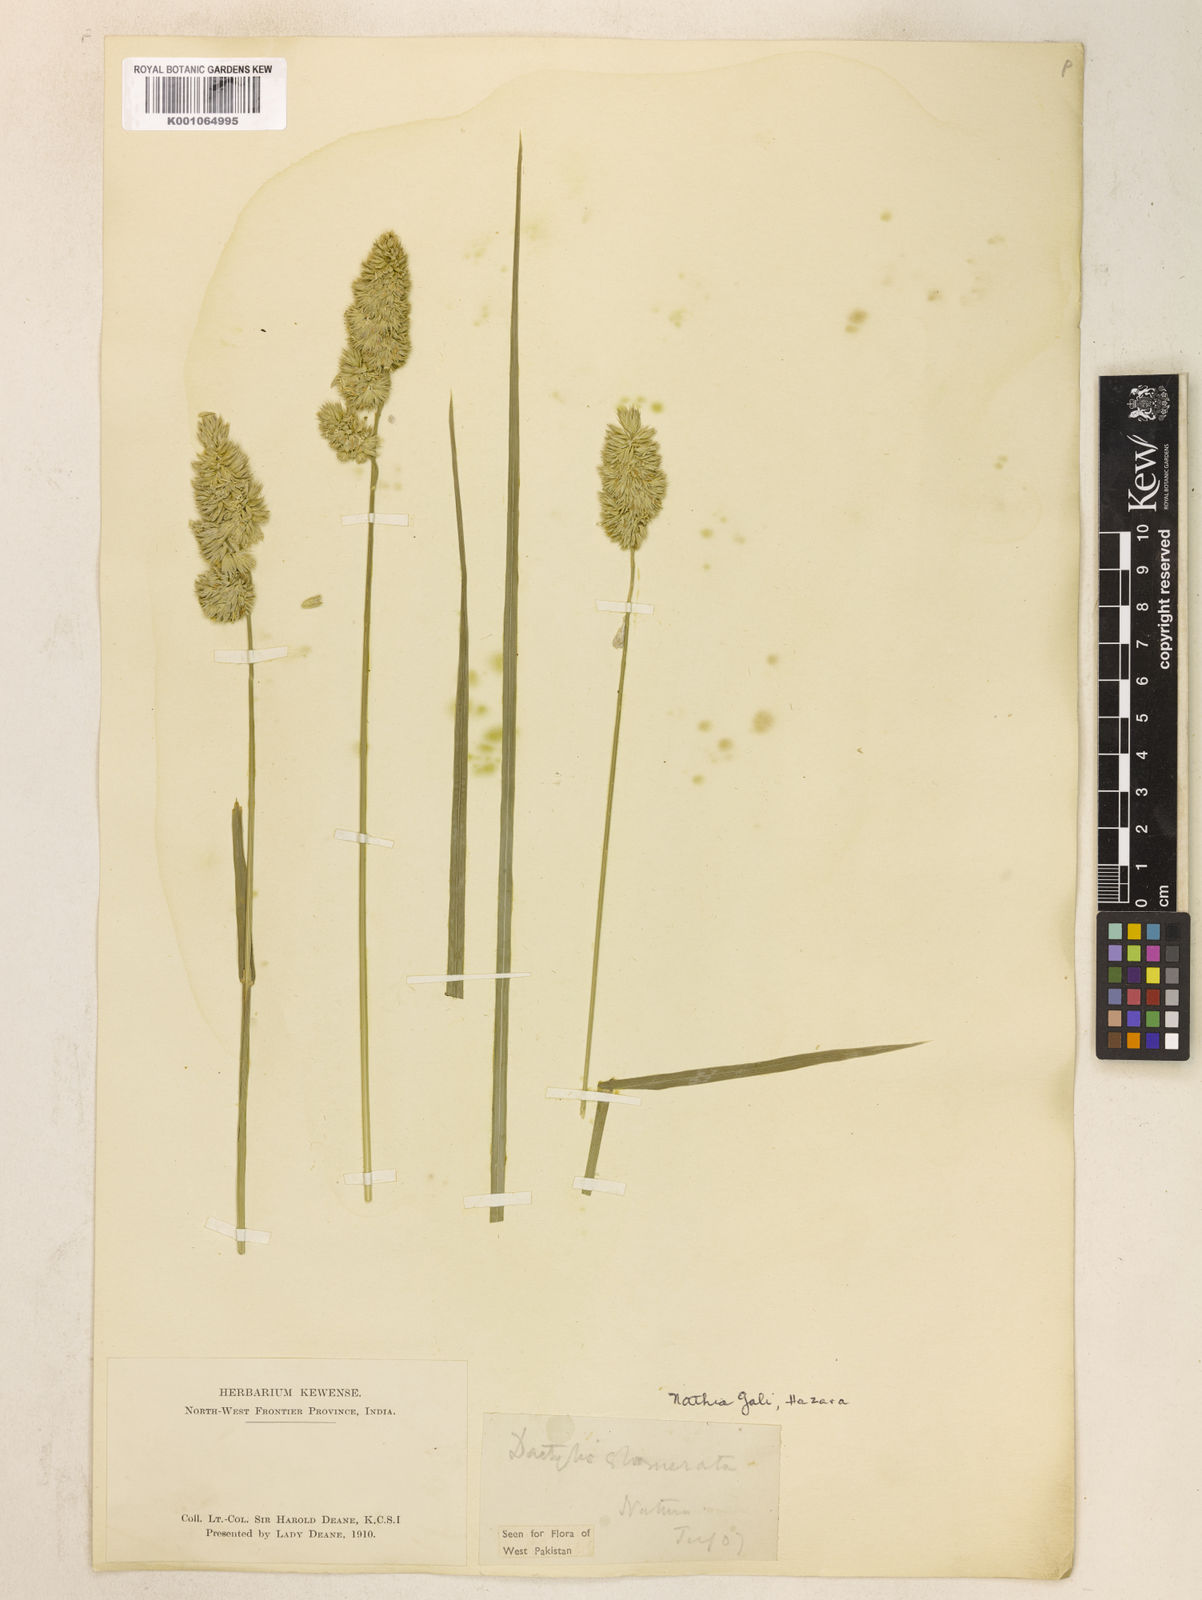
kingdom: Plantae
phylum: Tracheophyta
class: Liliopsida
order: Poales
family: Poaceae
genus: Dactylis
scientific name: Dactylis glomerata
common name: Orchardgrass
